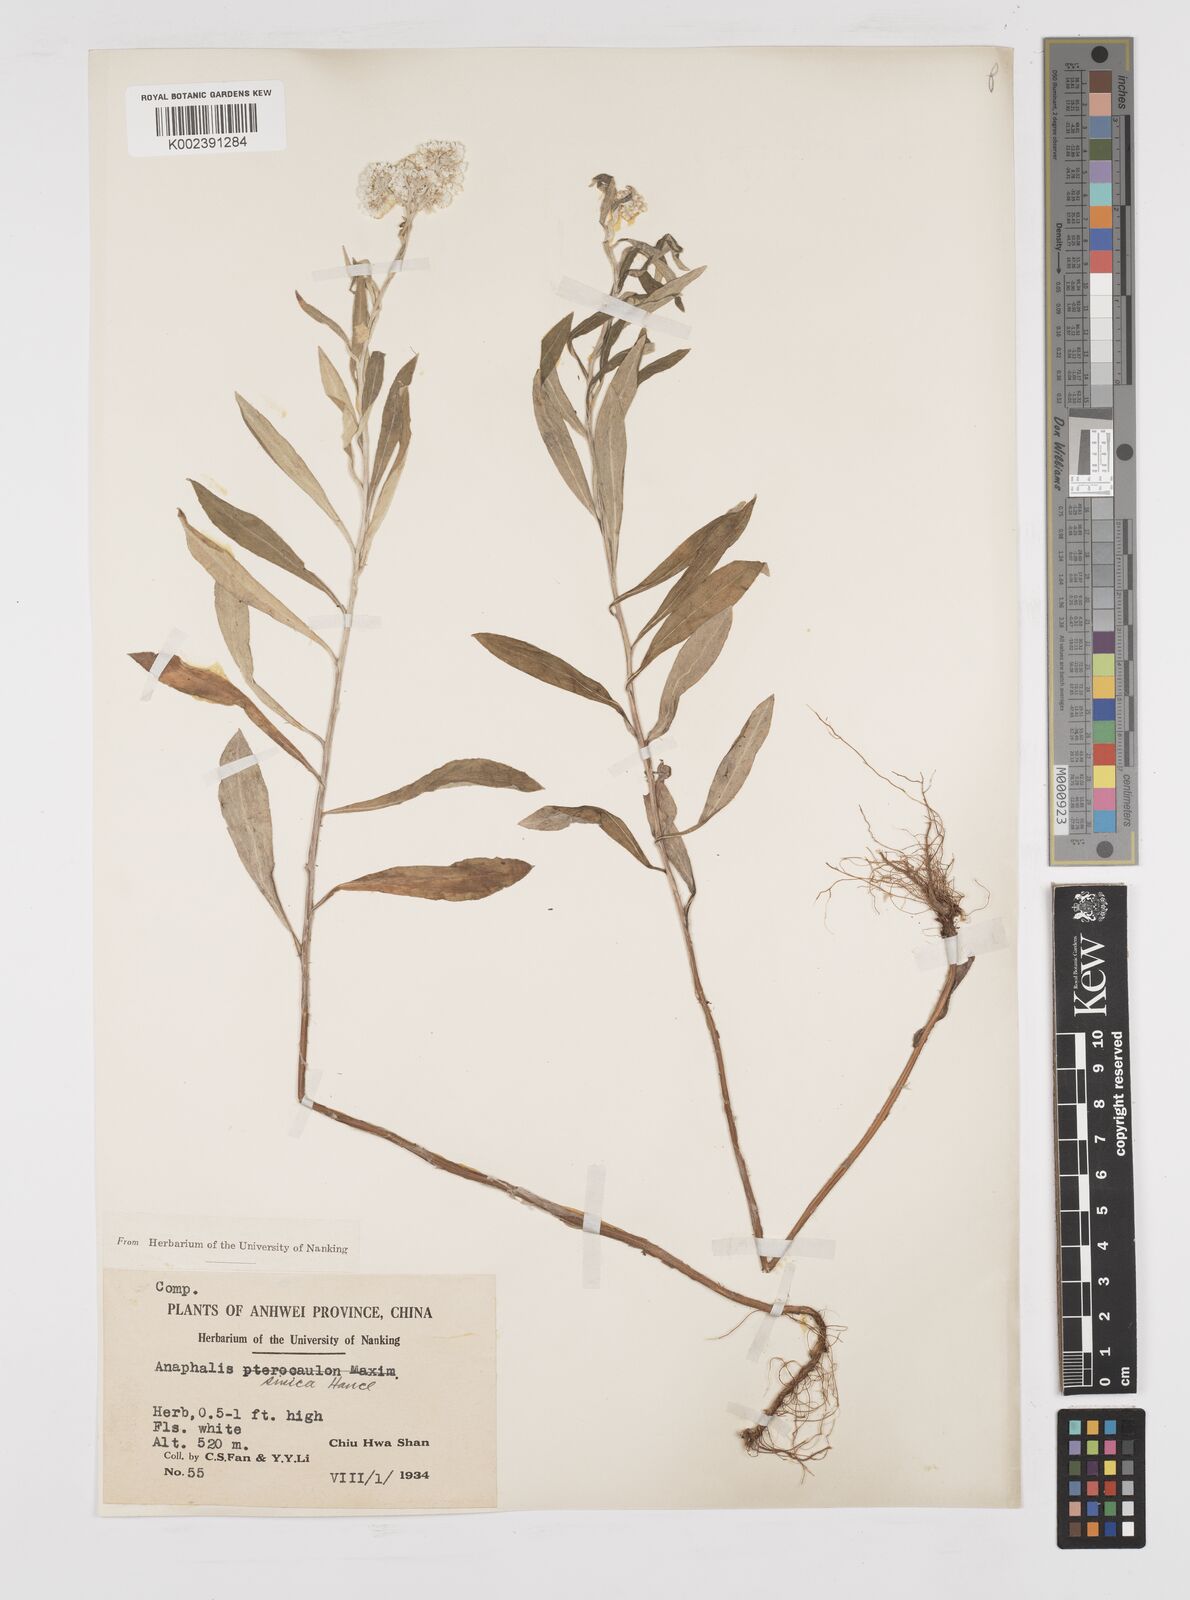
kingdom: Plantae
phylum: Tracheophyta
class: Magnoliopsida
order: Asterales
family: Asteraceae
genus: Anaphalis
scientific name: Anaphalis sinica
